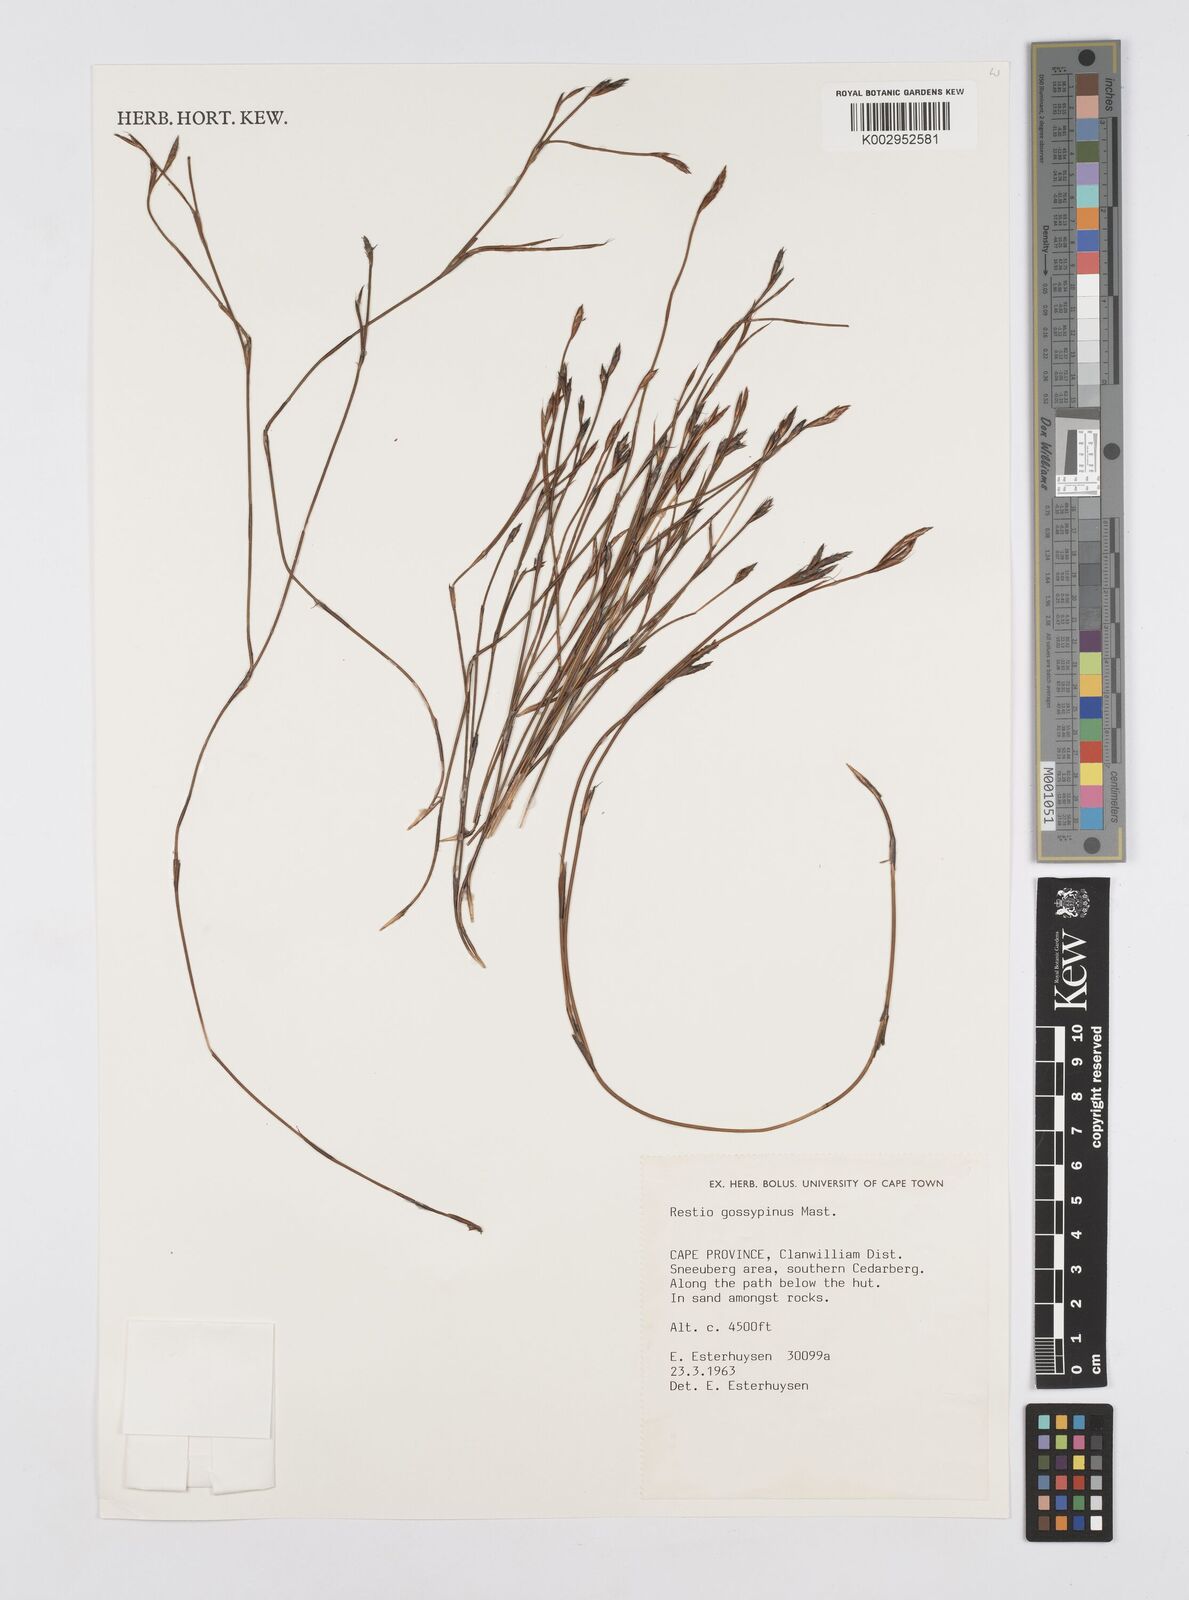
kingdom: Plantae
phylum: Tracheophyta
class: Liliopsida
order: Poales
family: Restionaceae
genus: Restio
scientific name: Restio gossypinus
